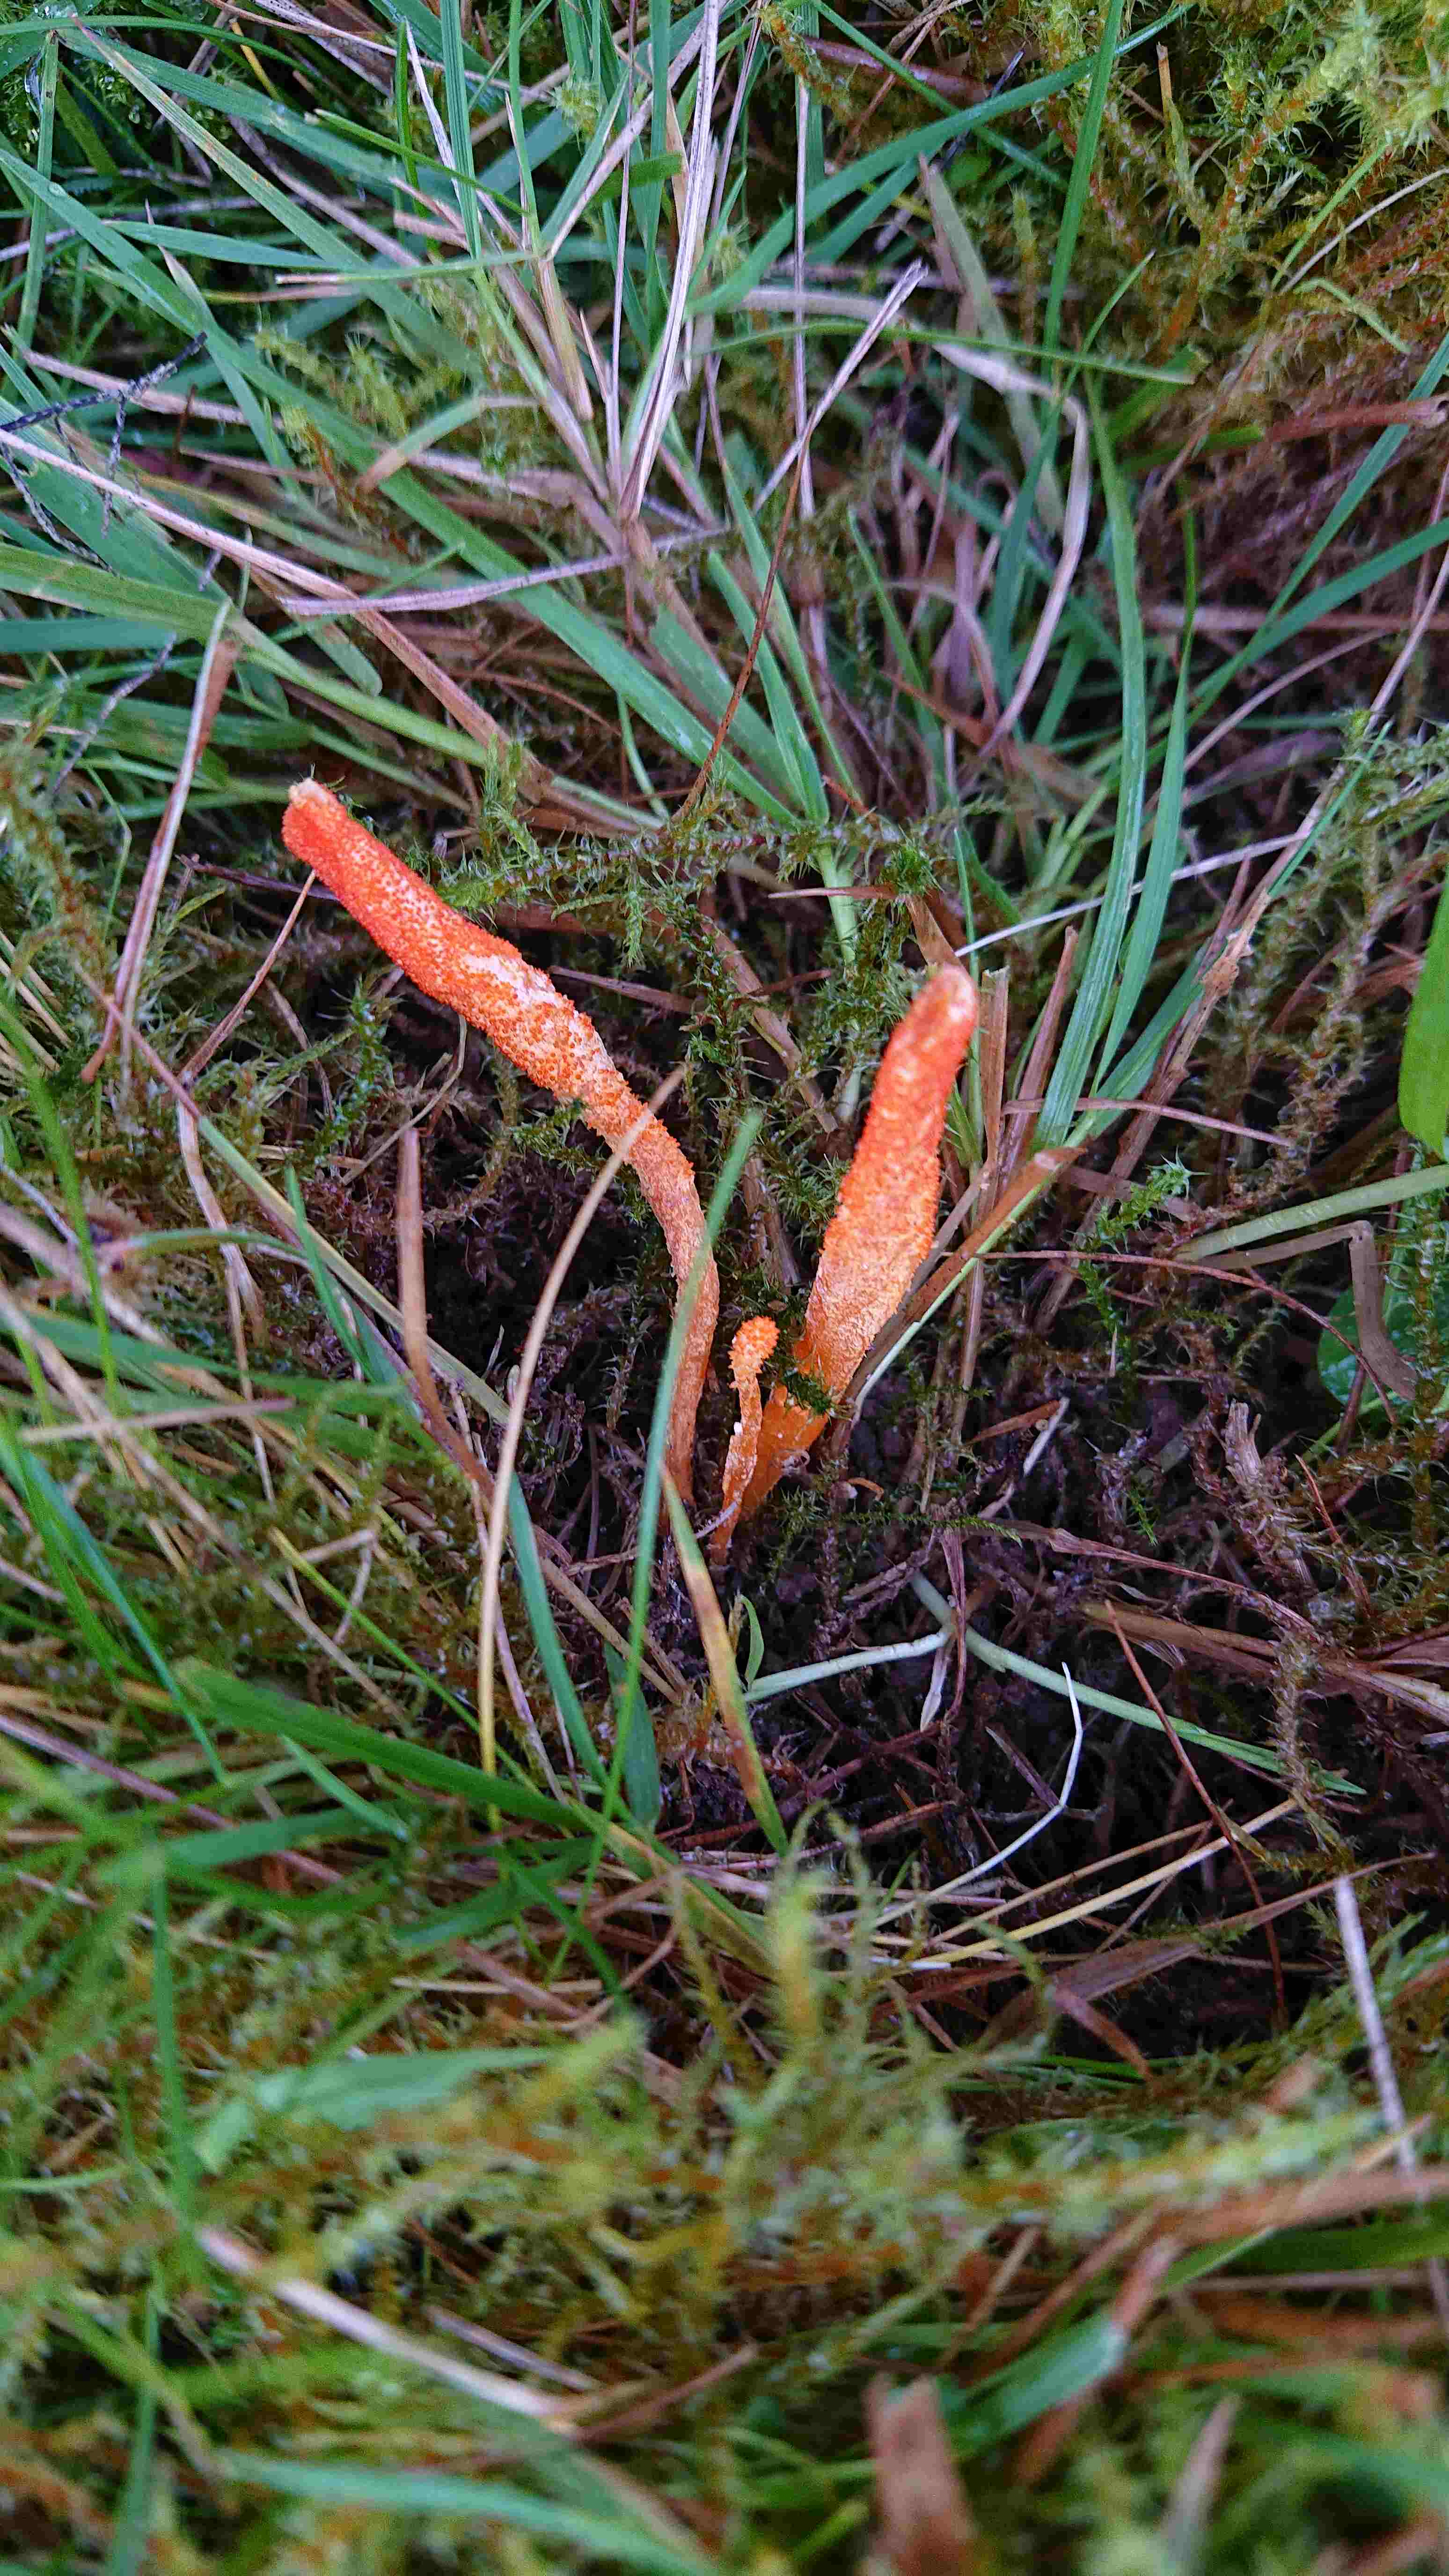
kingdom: Fungi
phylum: Ascomycota
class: Sordariomycetes
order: Hypocreales
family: Cordycipitaceae
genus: Cordyceps
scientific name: Cordyceps militaris
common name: puppe-snyltekølle
